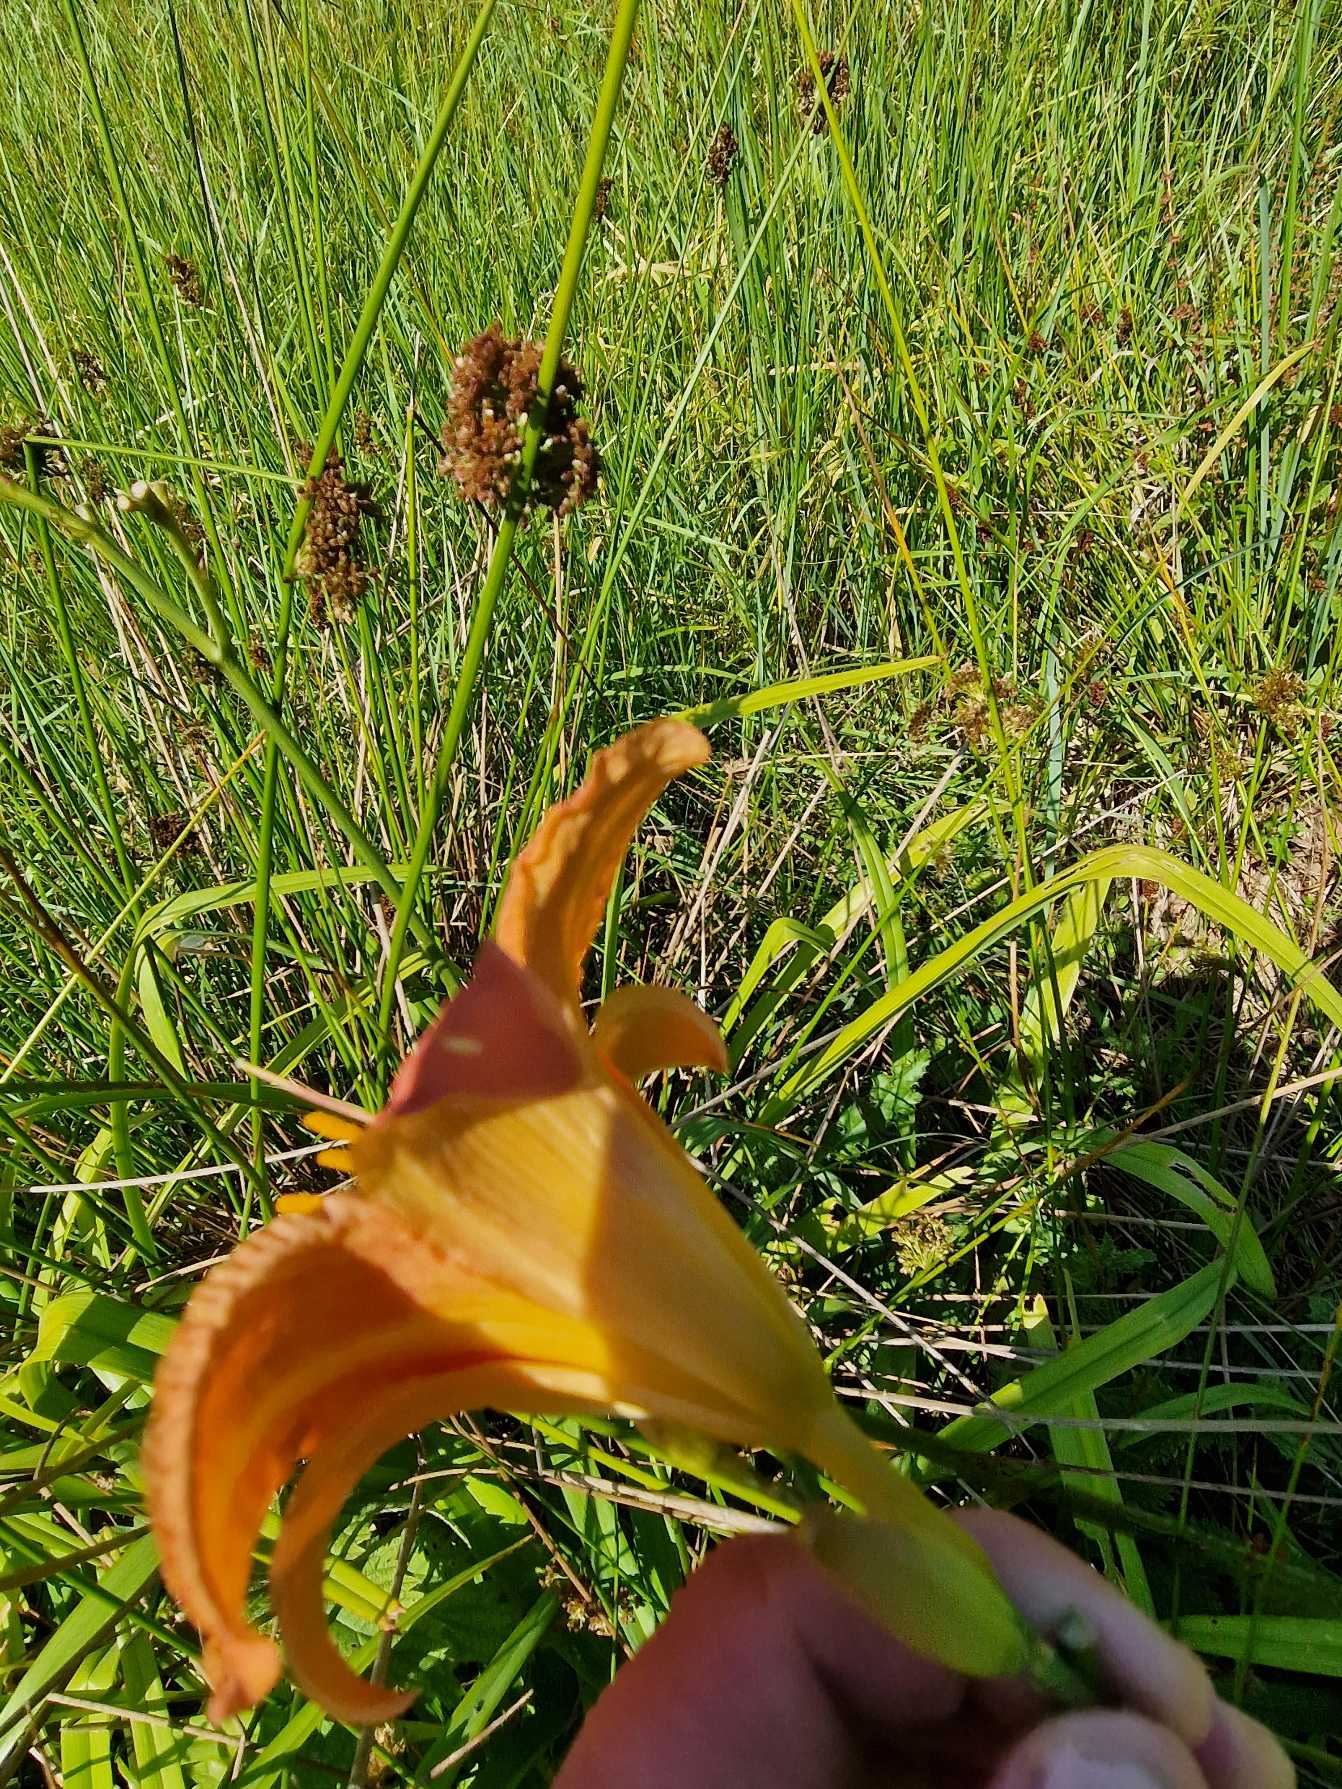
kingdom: Plantae
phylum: Tracheophyta
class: Liliopsida
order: Asparagales
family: Asphodelaceae
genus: Hemerocallis
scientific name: Hemerocallis fulva
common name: Rødgul daglilje
